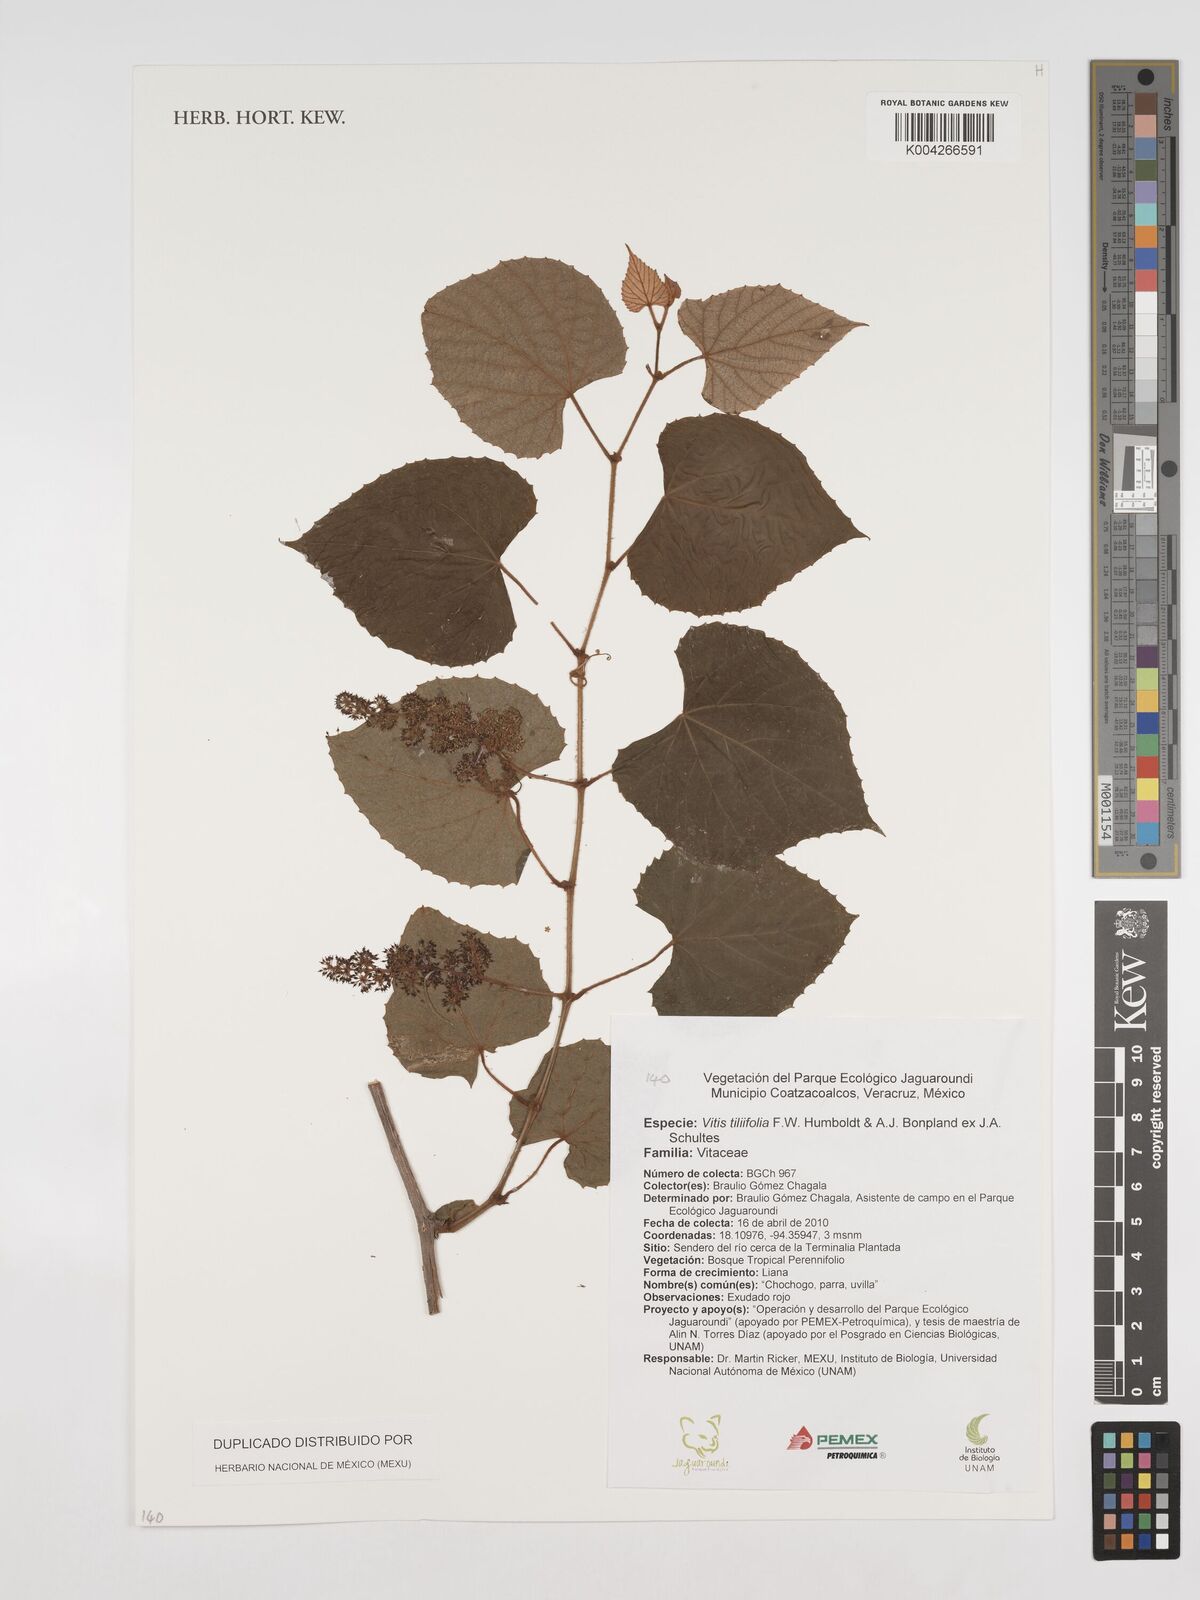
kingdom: Plantae
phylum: Tracheophyta
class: Magnoliopsida
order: Vitales
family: Vitaceae
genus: Cissus
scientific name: Cissus
